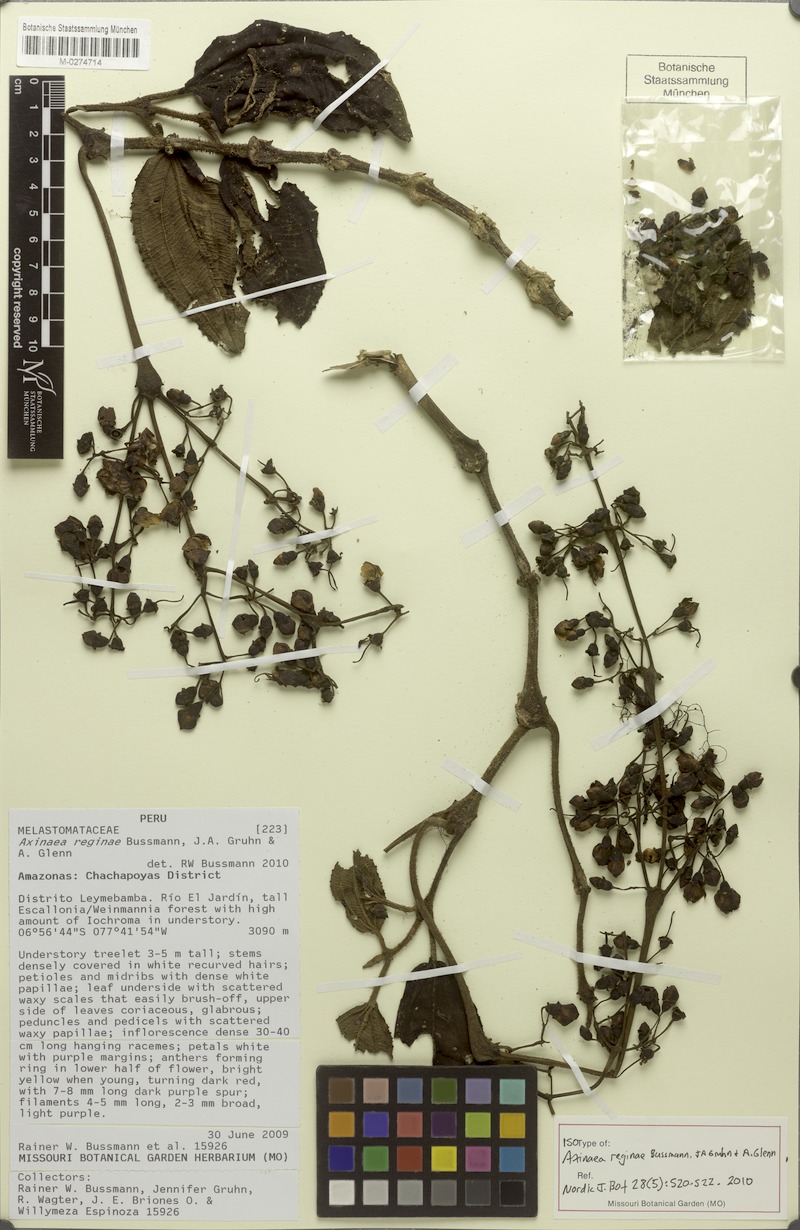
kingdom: Plantae
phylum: Tracheophyta
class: Magnoliopsida
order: Myrtales
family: Melastomataceae
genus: Axinaea
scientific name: Axinaea reginae
